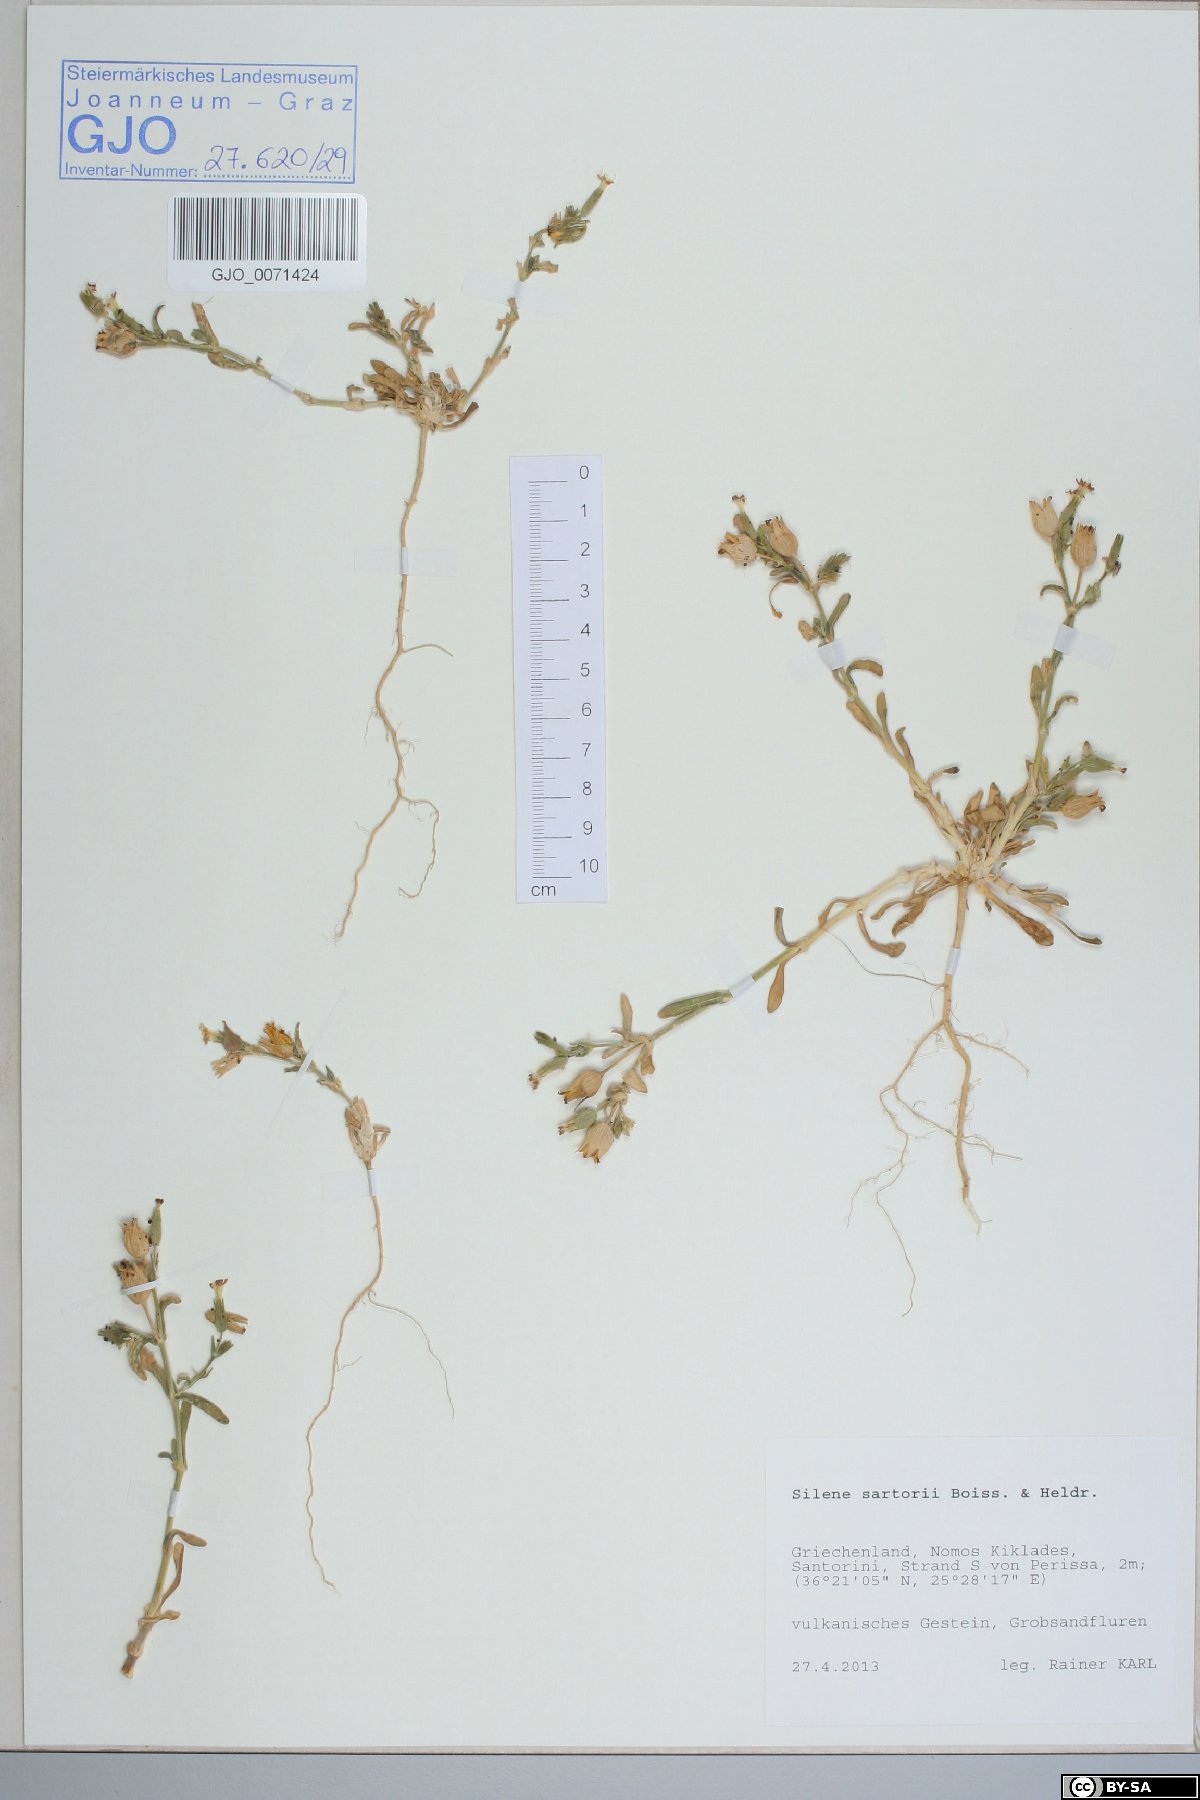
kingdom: Plantae
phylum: Tracheophyta
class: Magnoliopsida
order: Caryophyllales
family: Caryophyllaceae
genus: Silene
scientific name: Silene sartorii
